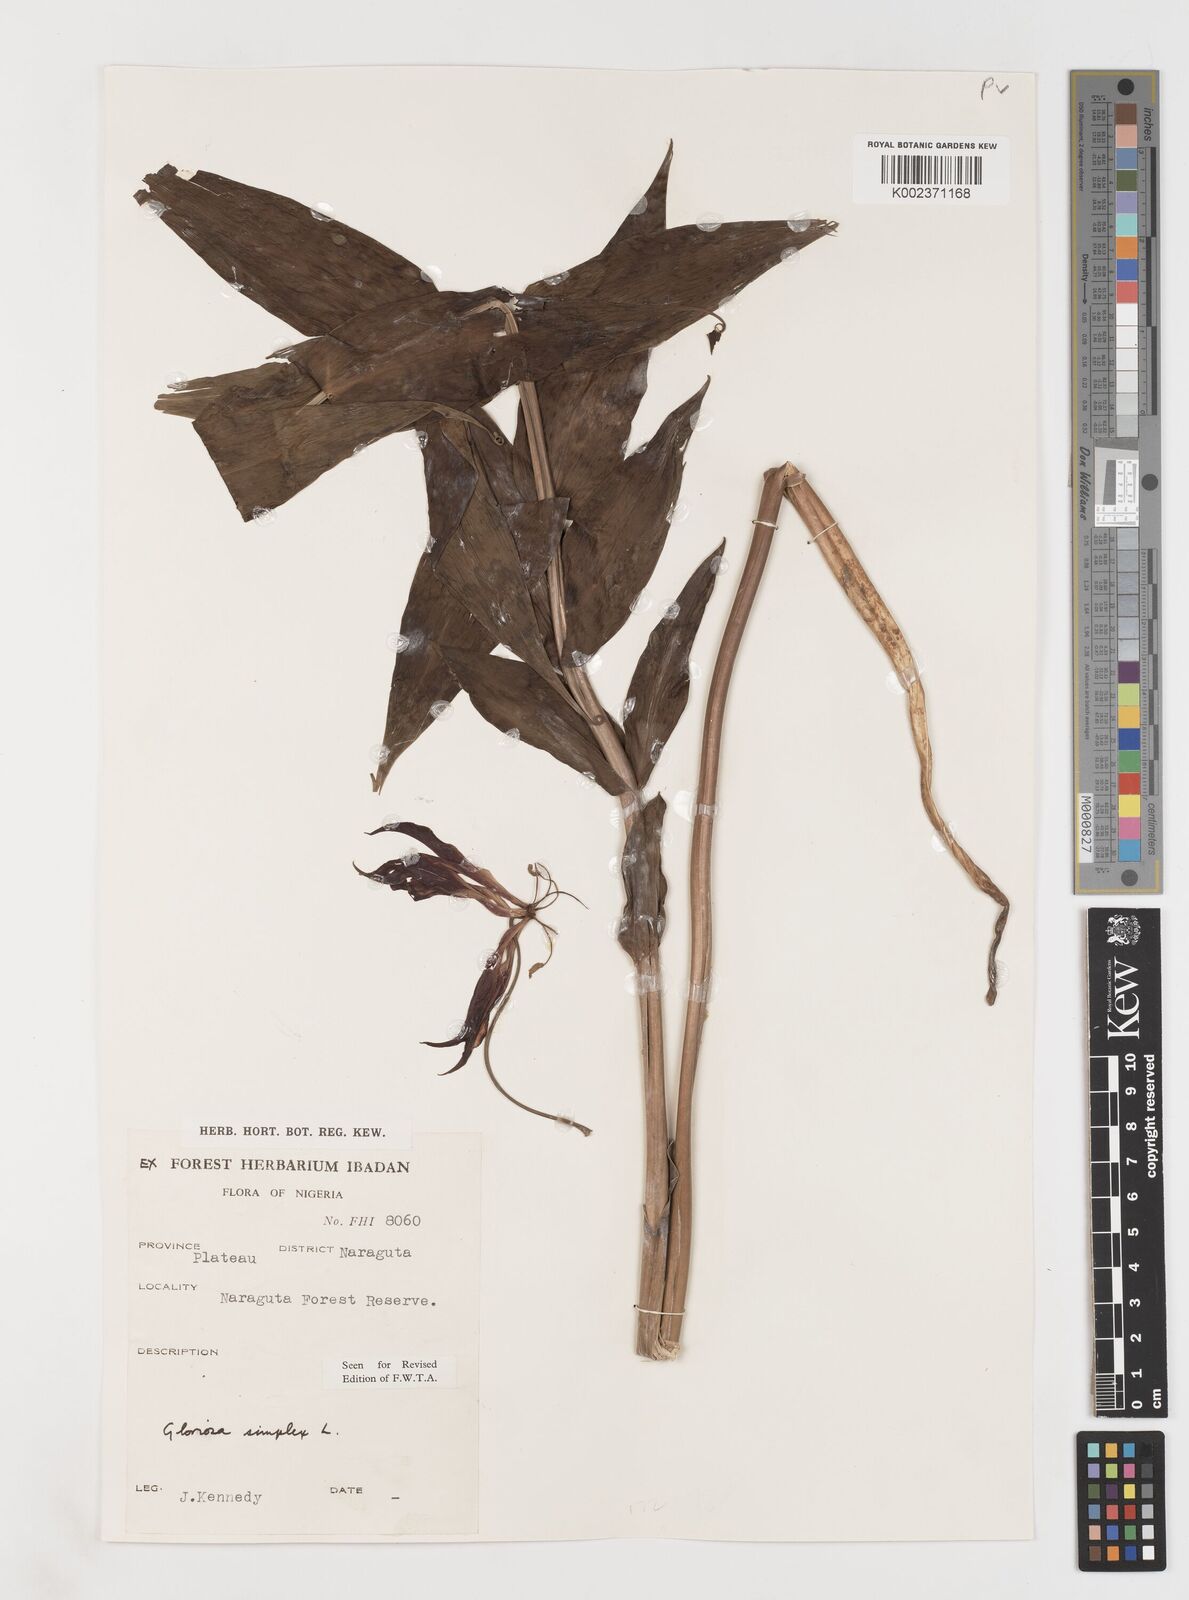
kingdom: Plantae
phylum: Tracheophyta
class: Liliopsida
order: Liliales
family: Colchicaceae
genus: Gloriosa
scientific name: Gloriosa simplex
